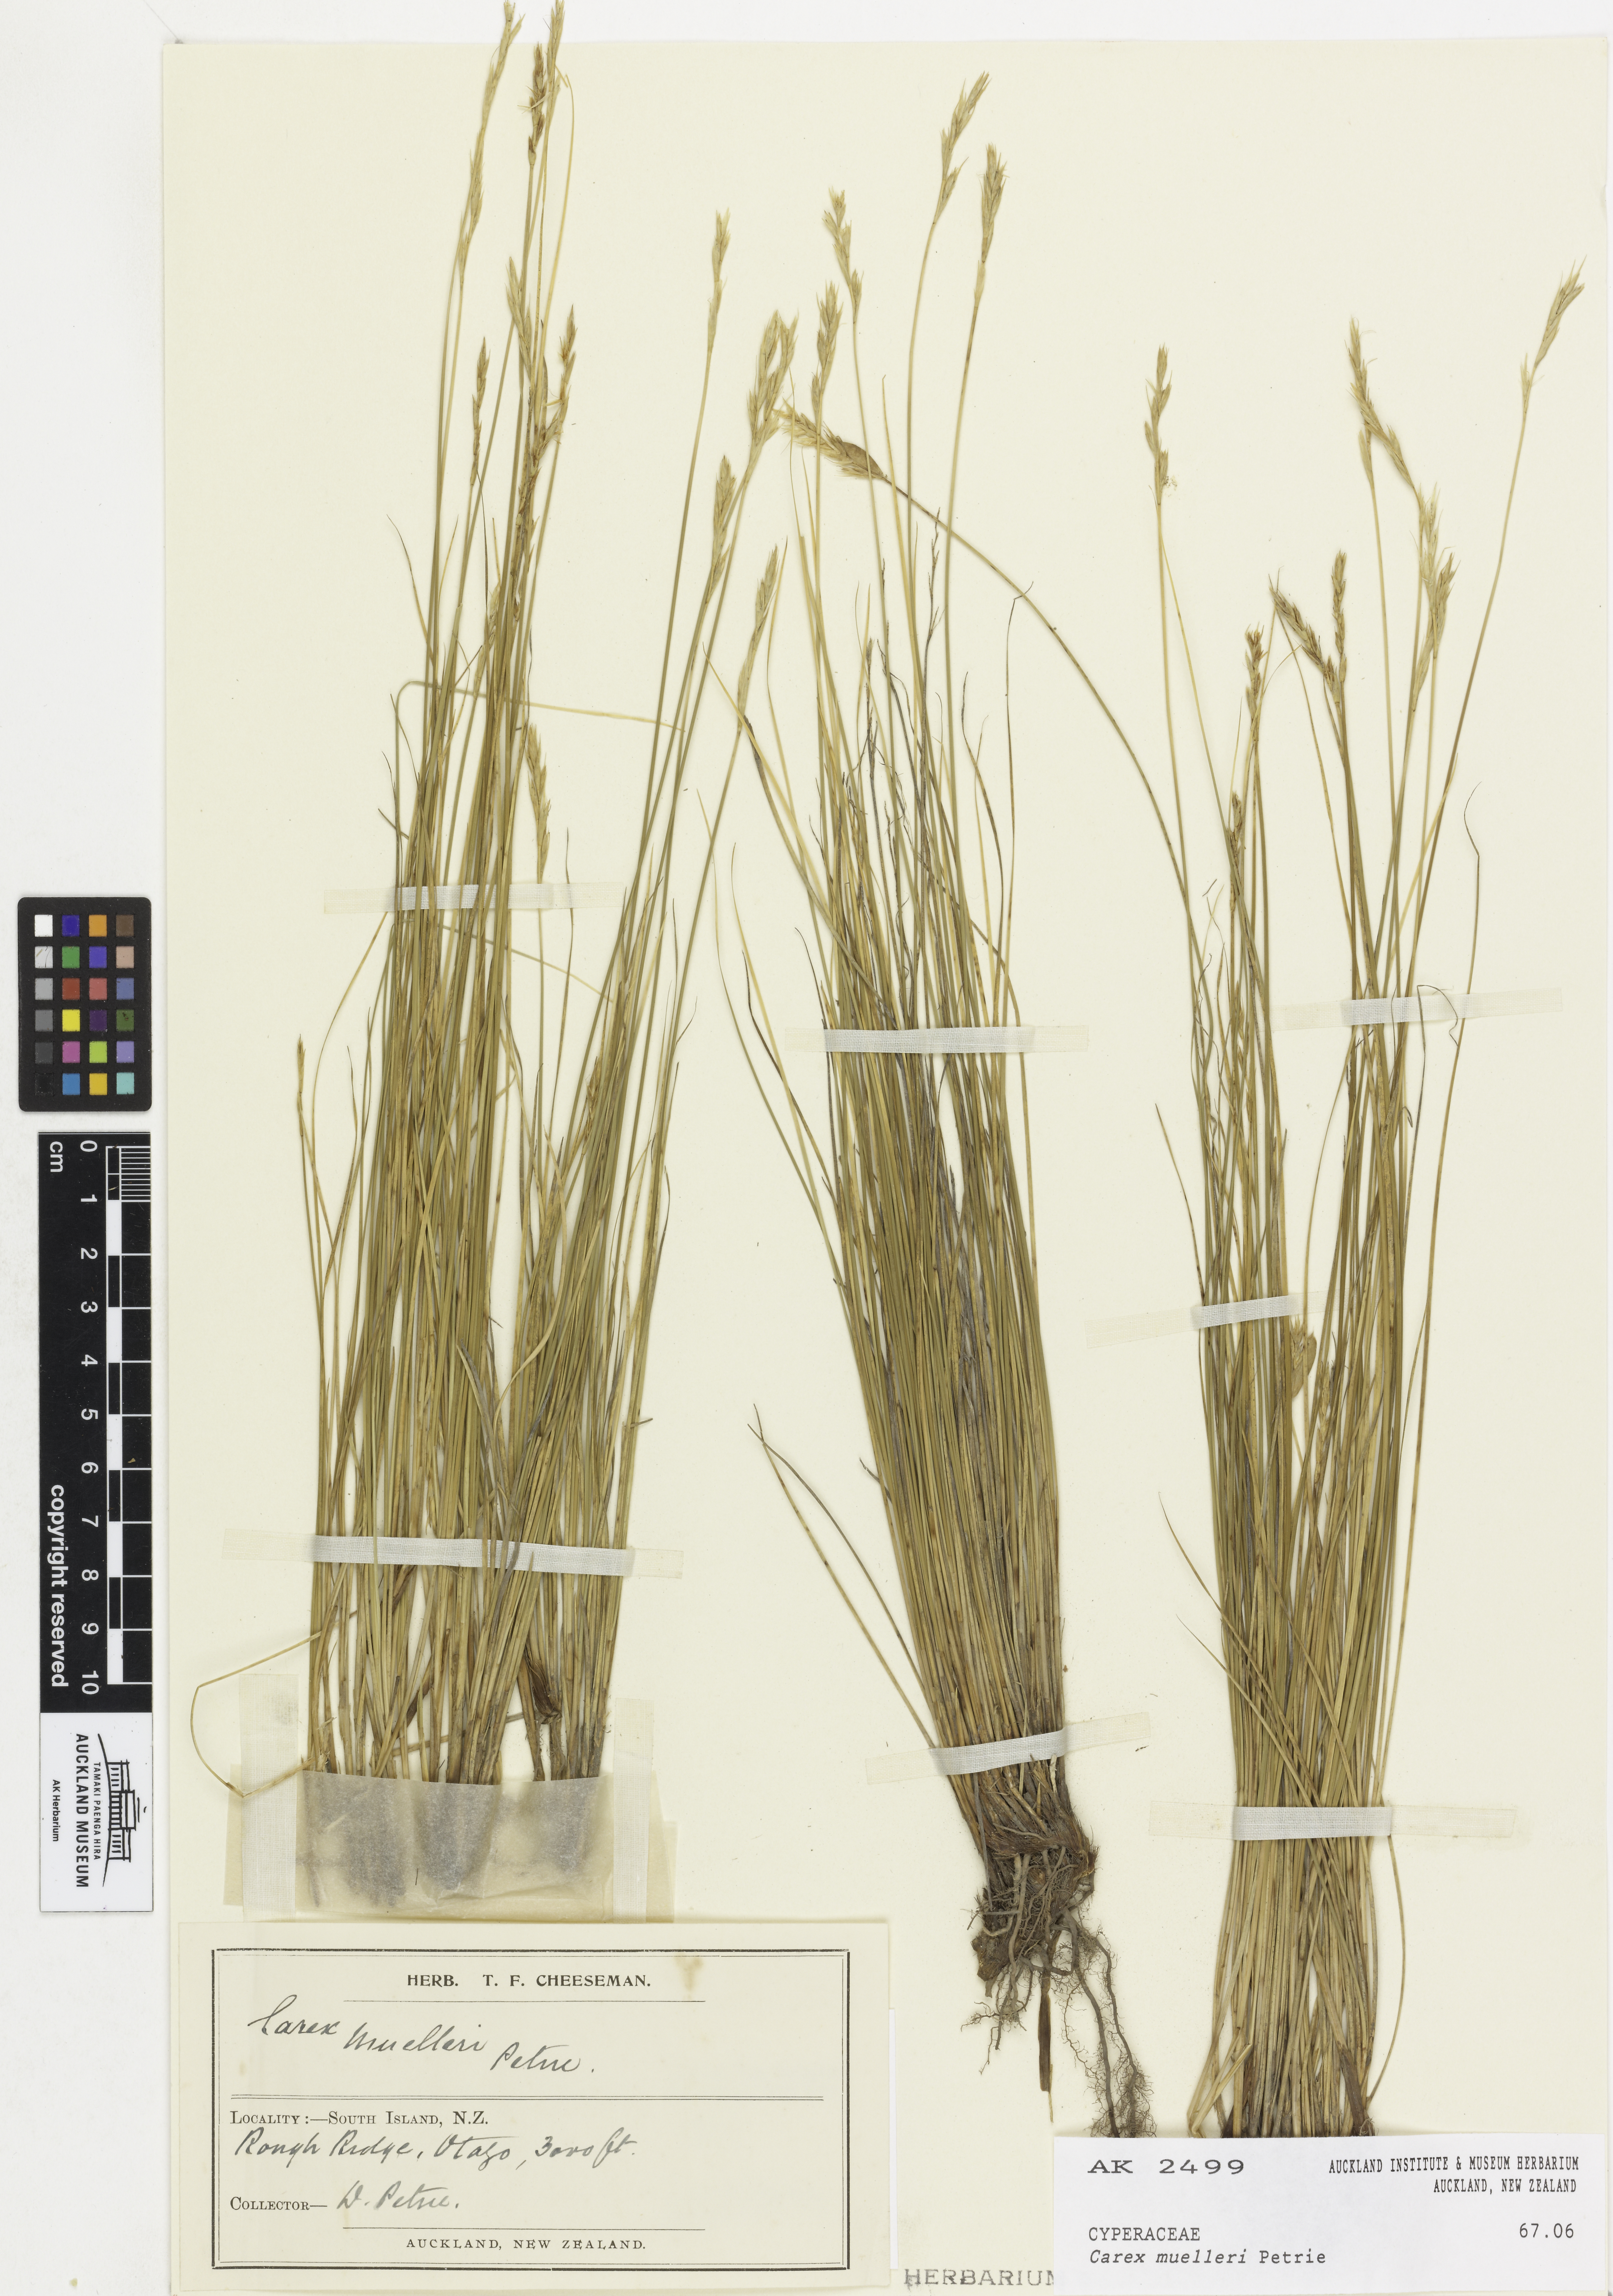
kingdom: Plantae
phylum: Tracheophyta
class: Liliopsida
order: Poales
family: Cyperaceae
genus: Carex
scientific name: Carex muelleri
